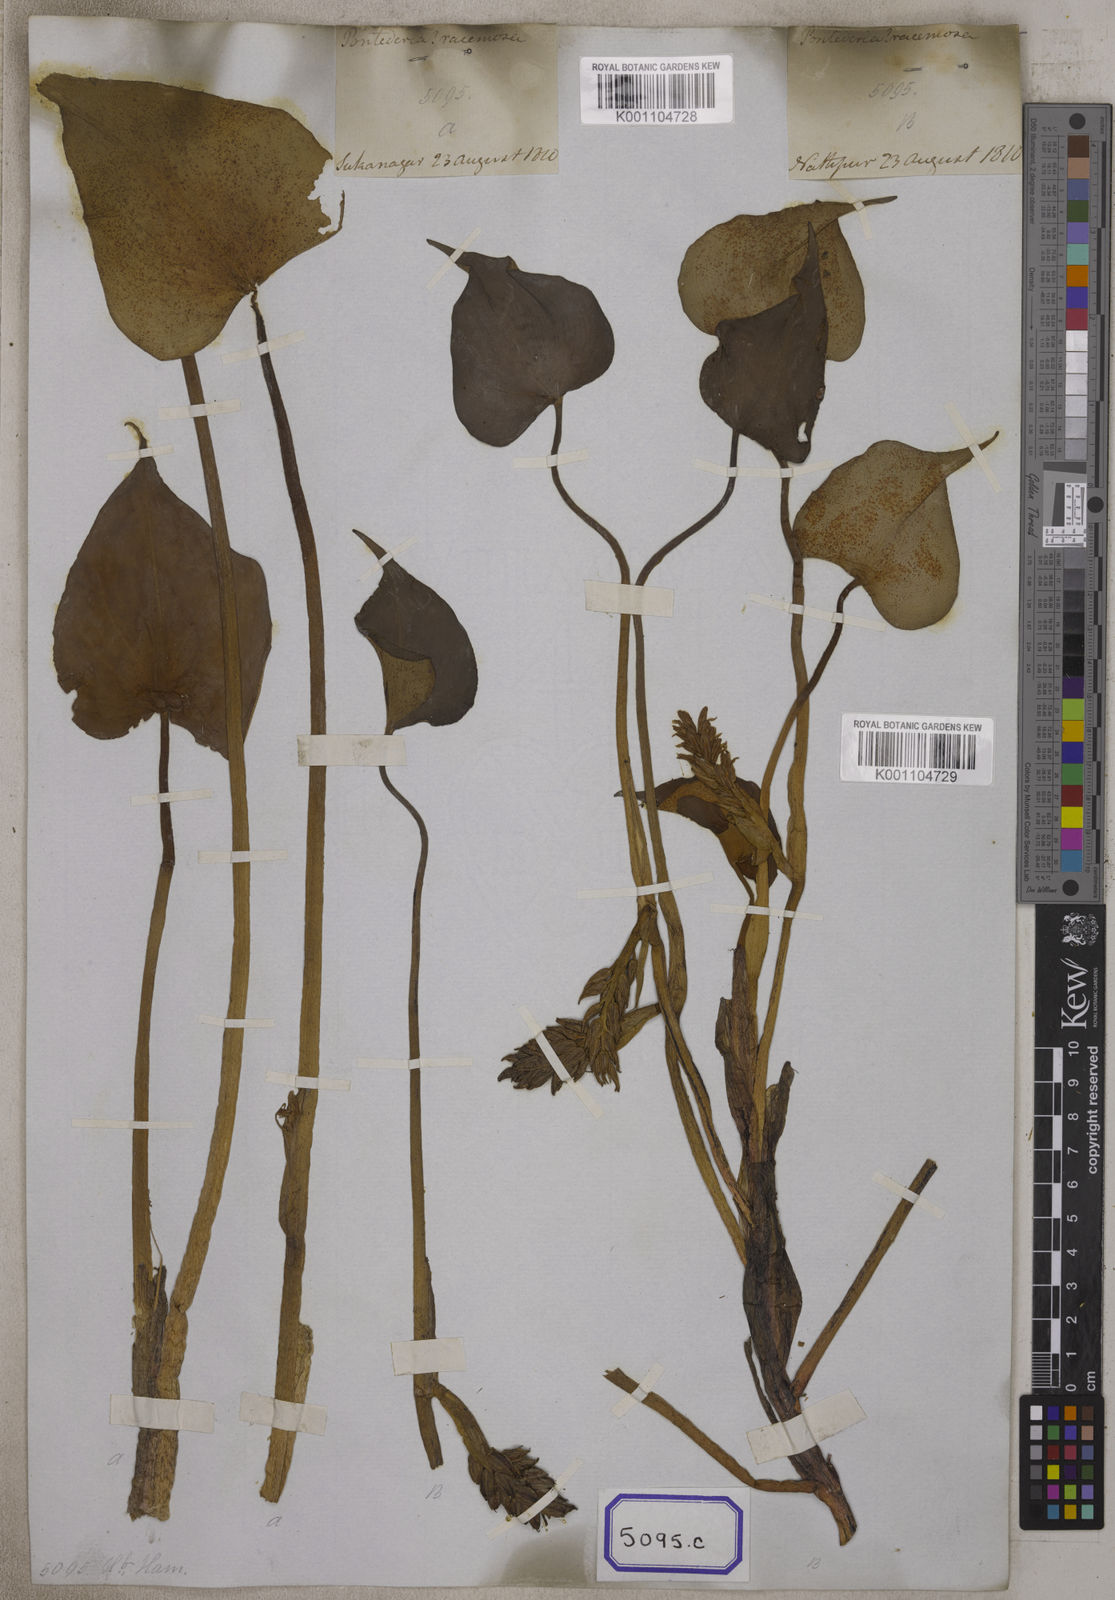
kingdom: Plantae
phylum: Tracheophyta
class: Liliopsida
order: Commelinales
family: Pontederiaceae
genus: Pontederia
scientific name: Pontederia
